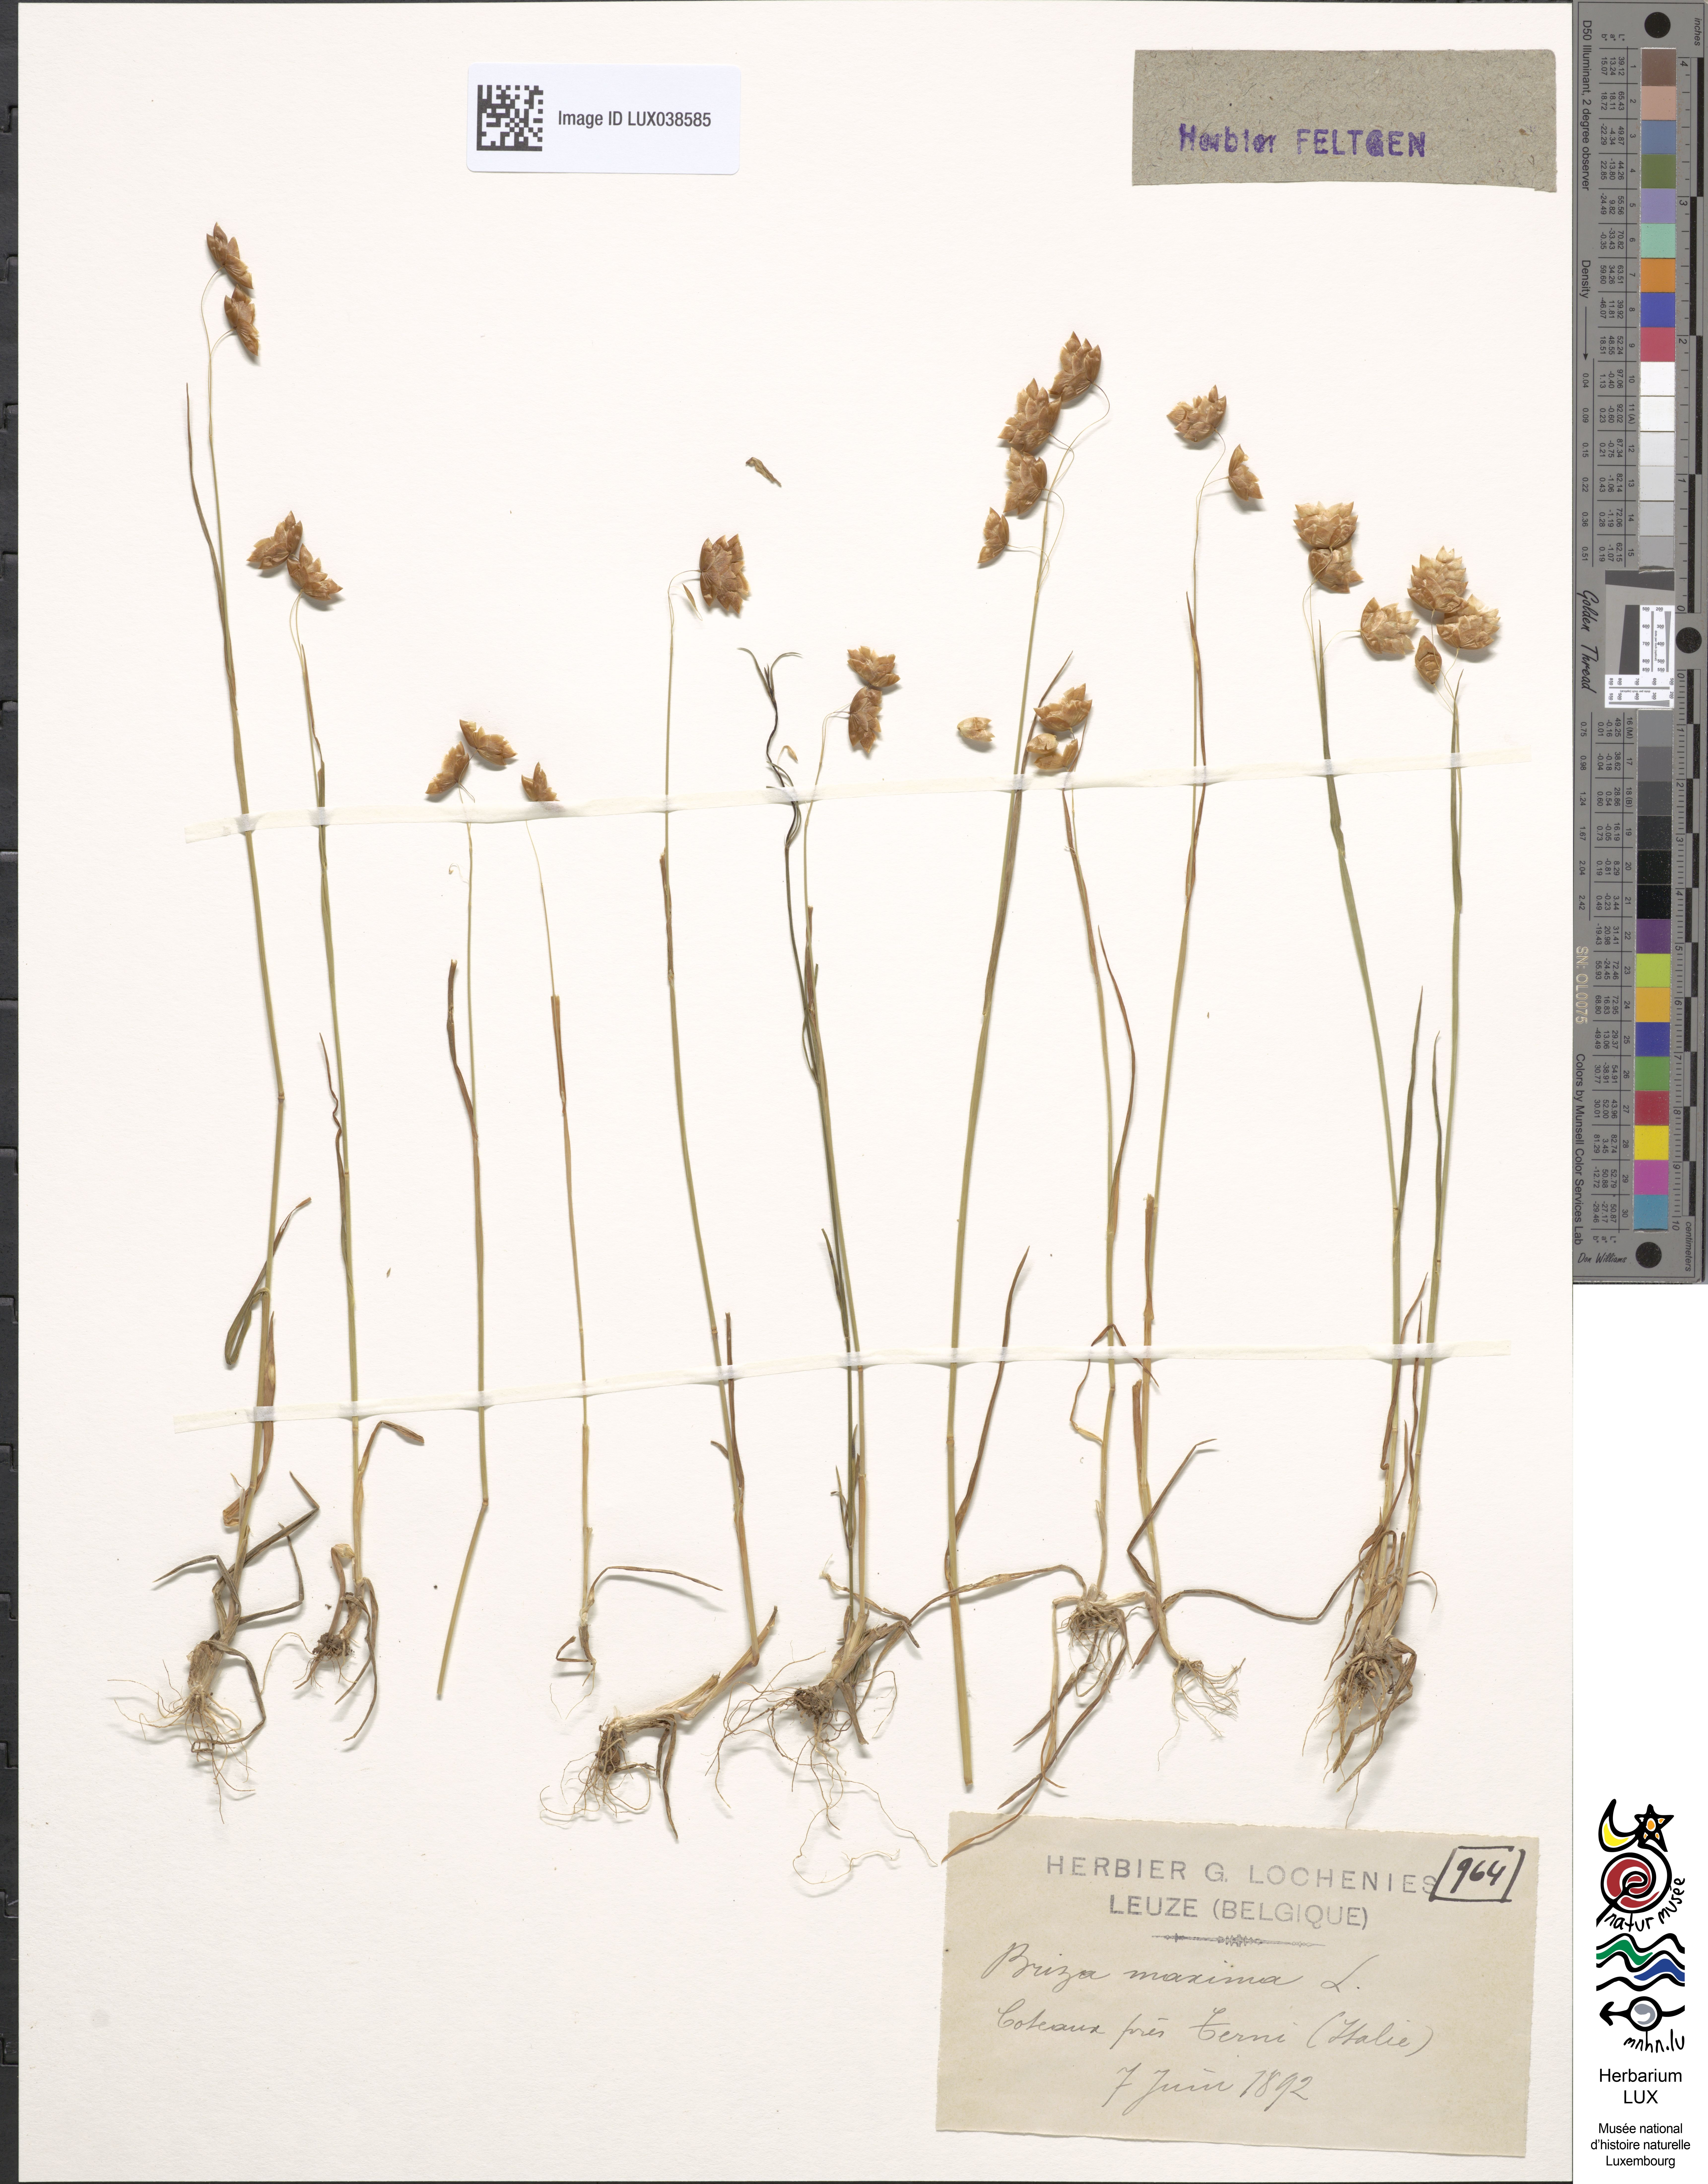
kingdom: Plantae
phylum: Tracheophyta
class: Liliopsida
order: Poales
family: Poaceae
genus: Briza
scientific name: Briza maxima
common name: Big quakinggrass
